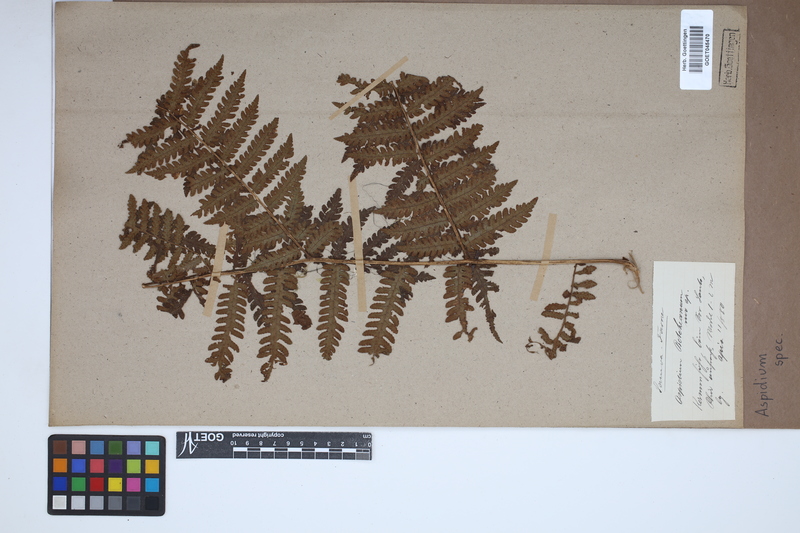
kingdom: Plantae
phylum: Tracheophyta
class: Polypodiopsida
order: Polypodiales
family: Tectariaceae
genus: Tectaria
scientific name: Tectaria Aspidium spec
